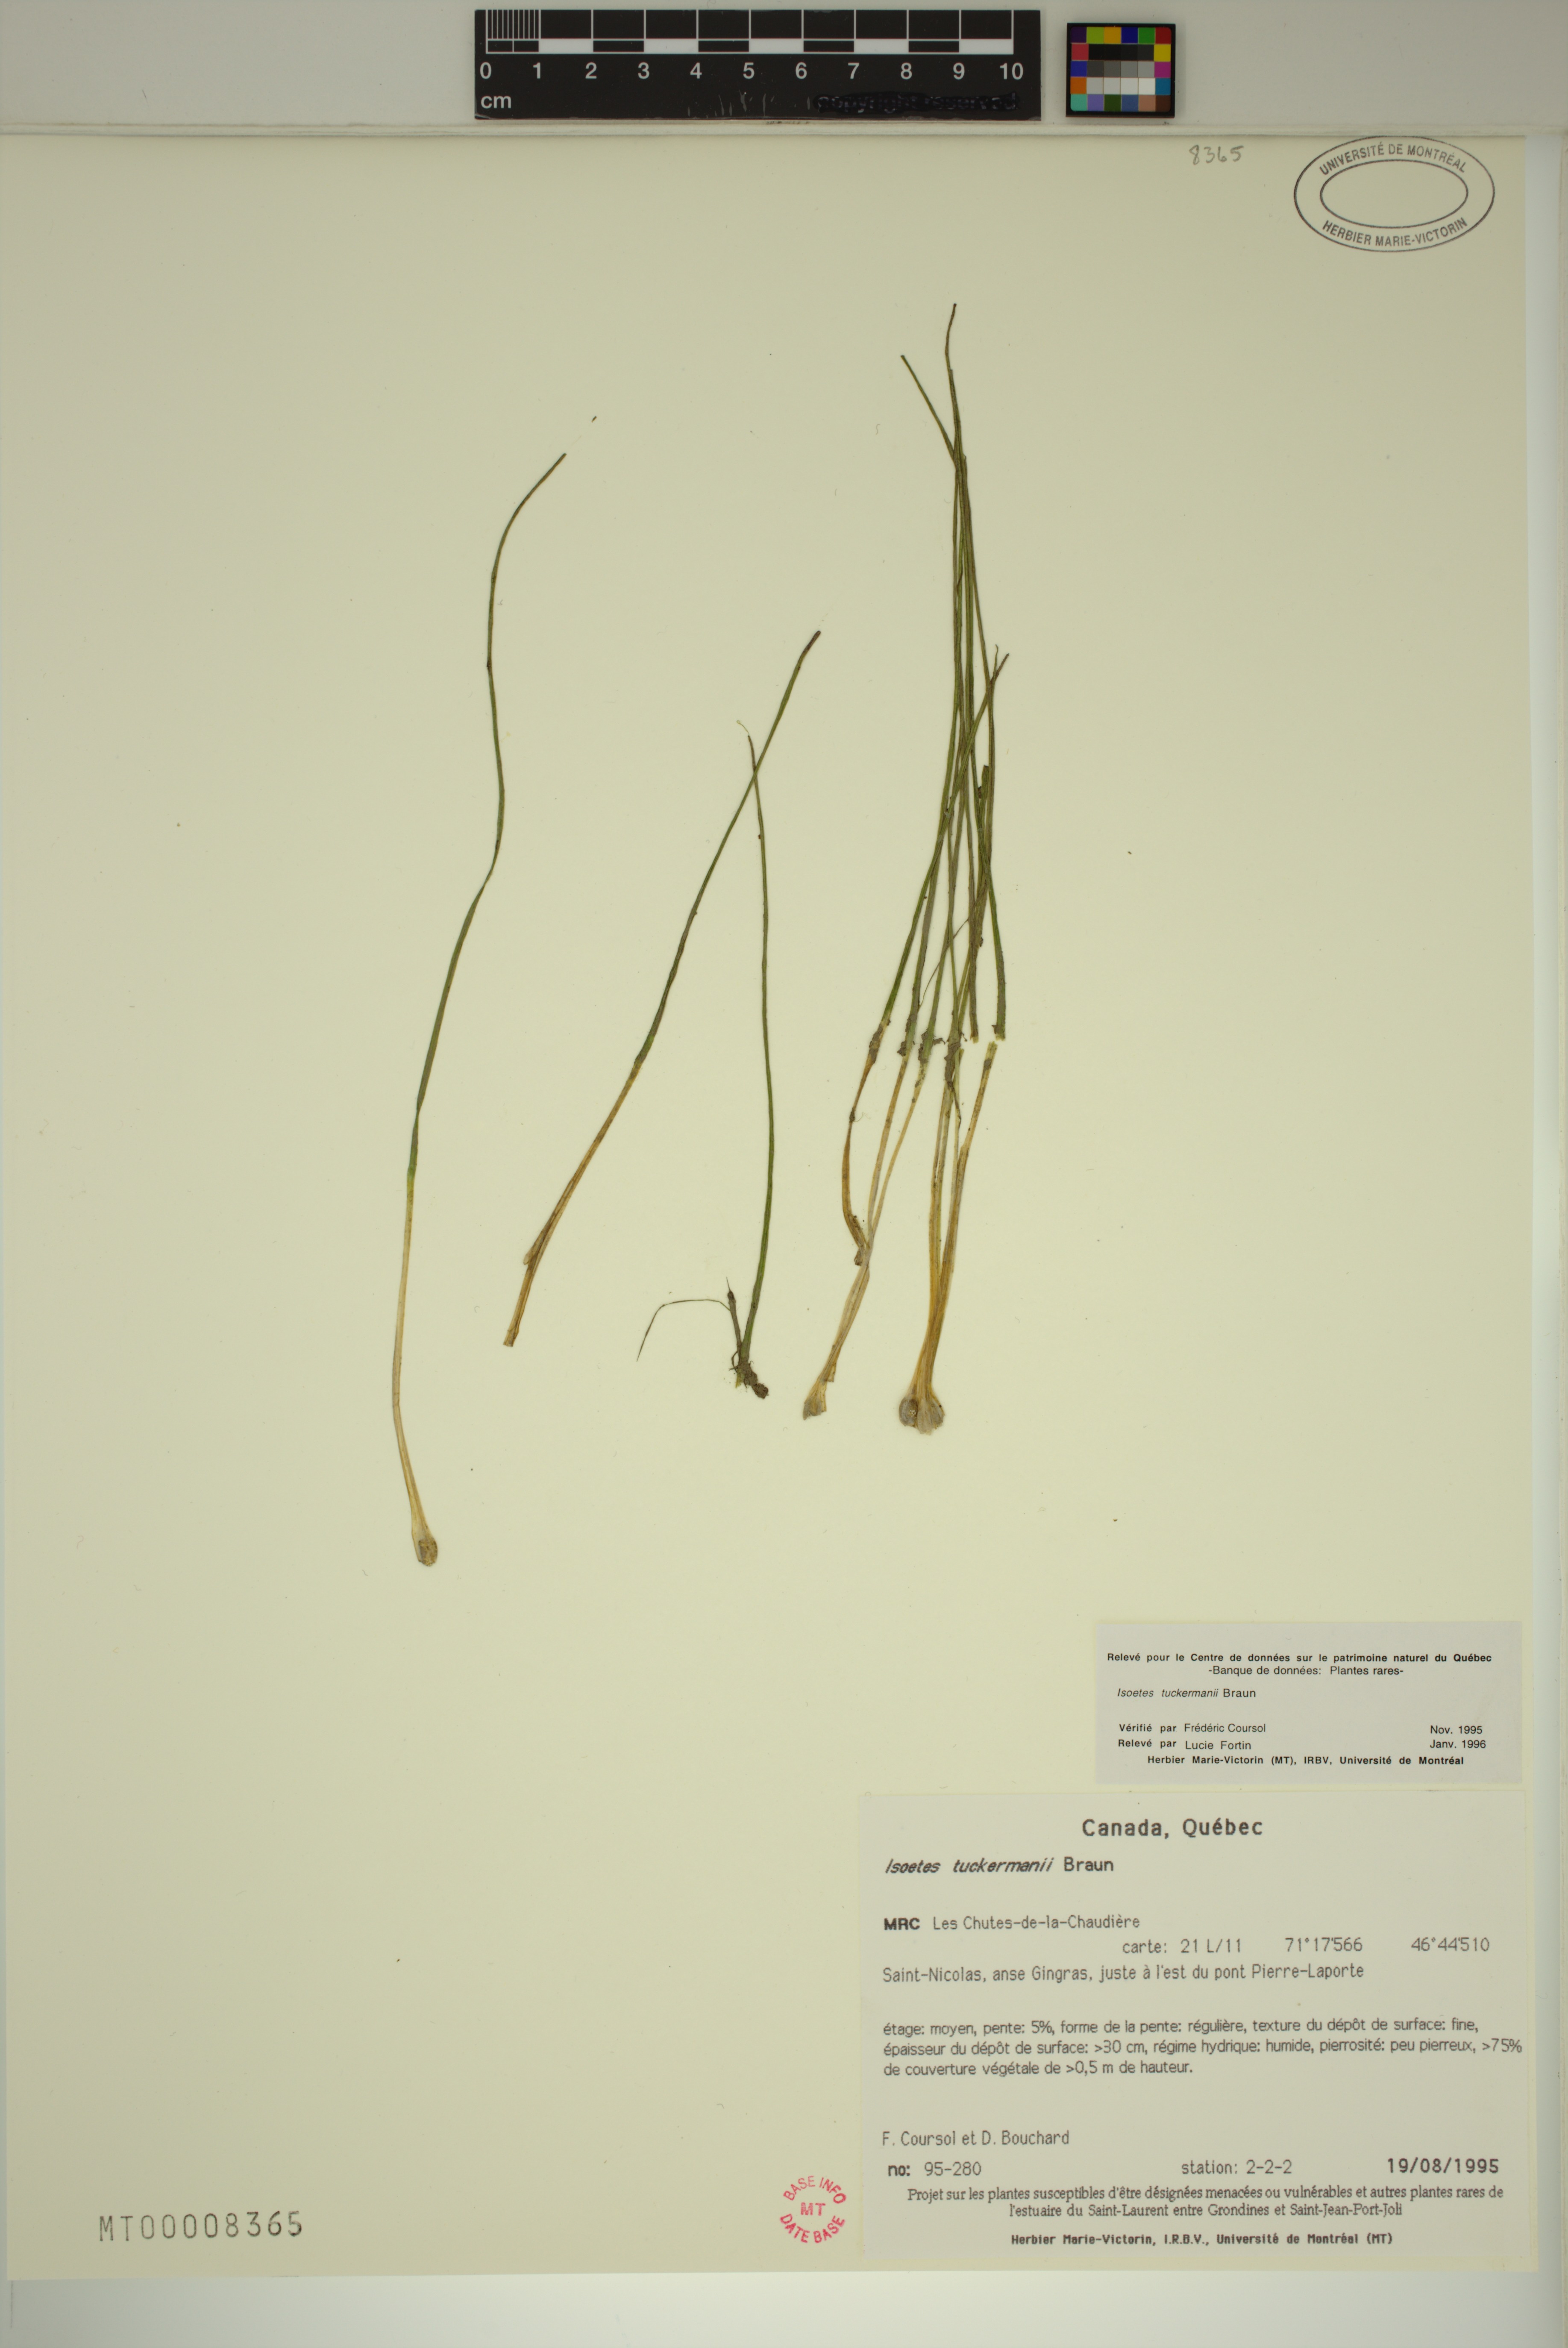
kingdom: Plantae
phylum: Tracheophyta
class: Lycopodiopsida
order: Isoetales
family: Isoetaceae
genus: Isoetes
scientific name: Isoetes laurentiana
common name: St. lawrence quillwort
